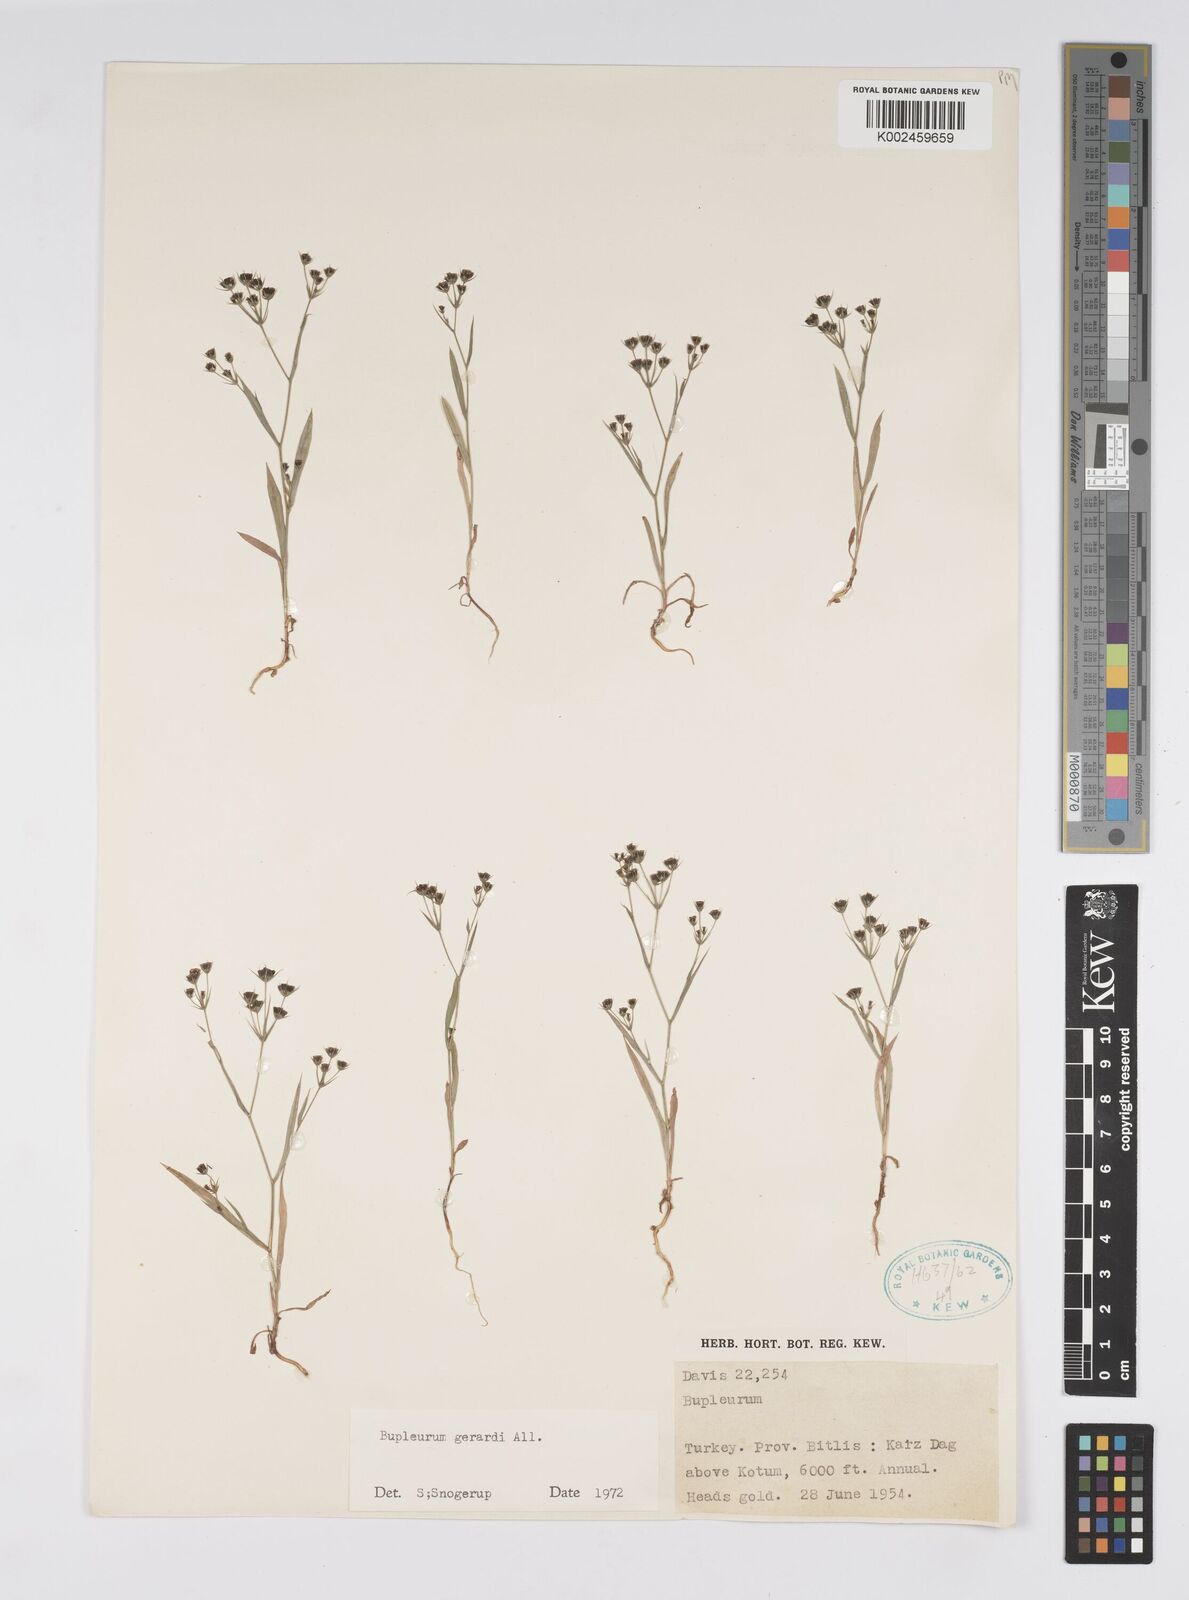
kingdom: Plantae
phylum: Tracheophyta
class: Magnoliopsida
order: Apiales
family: Apiaceae
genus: Bupleurum
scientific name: Bupleurum gerardi
